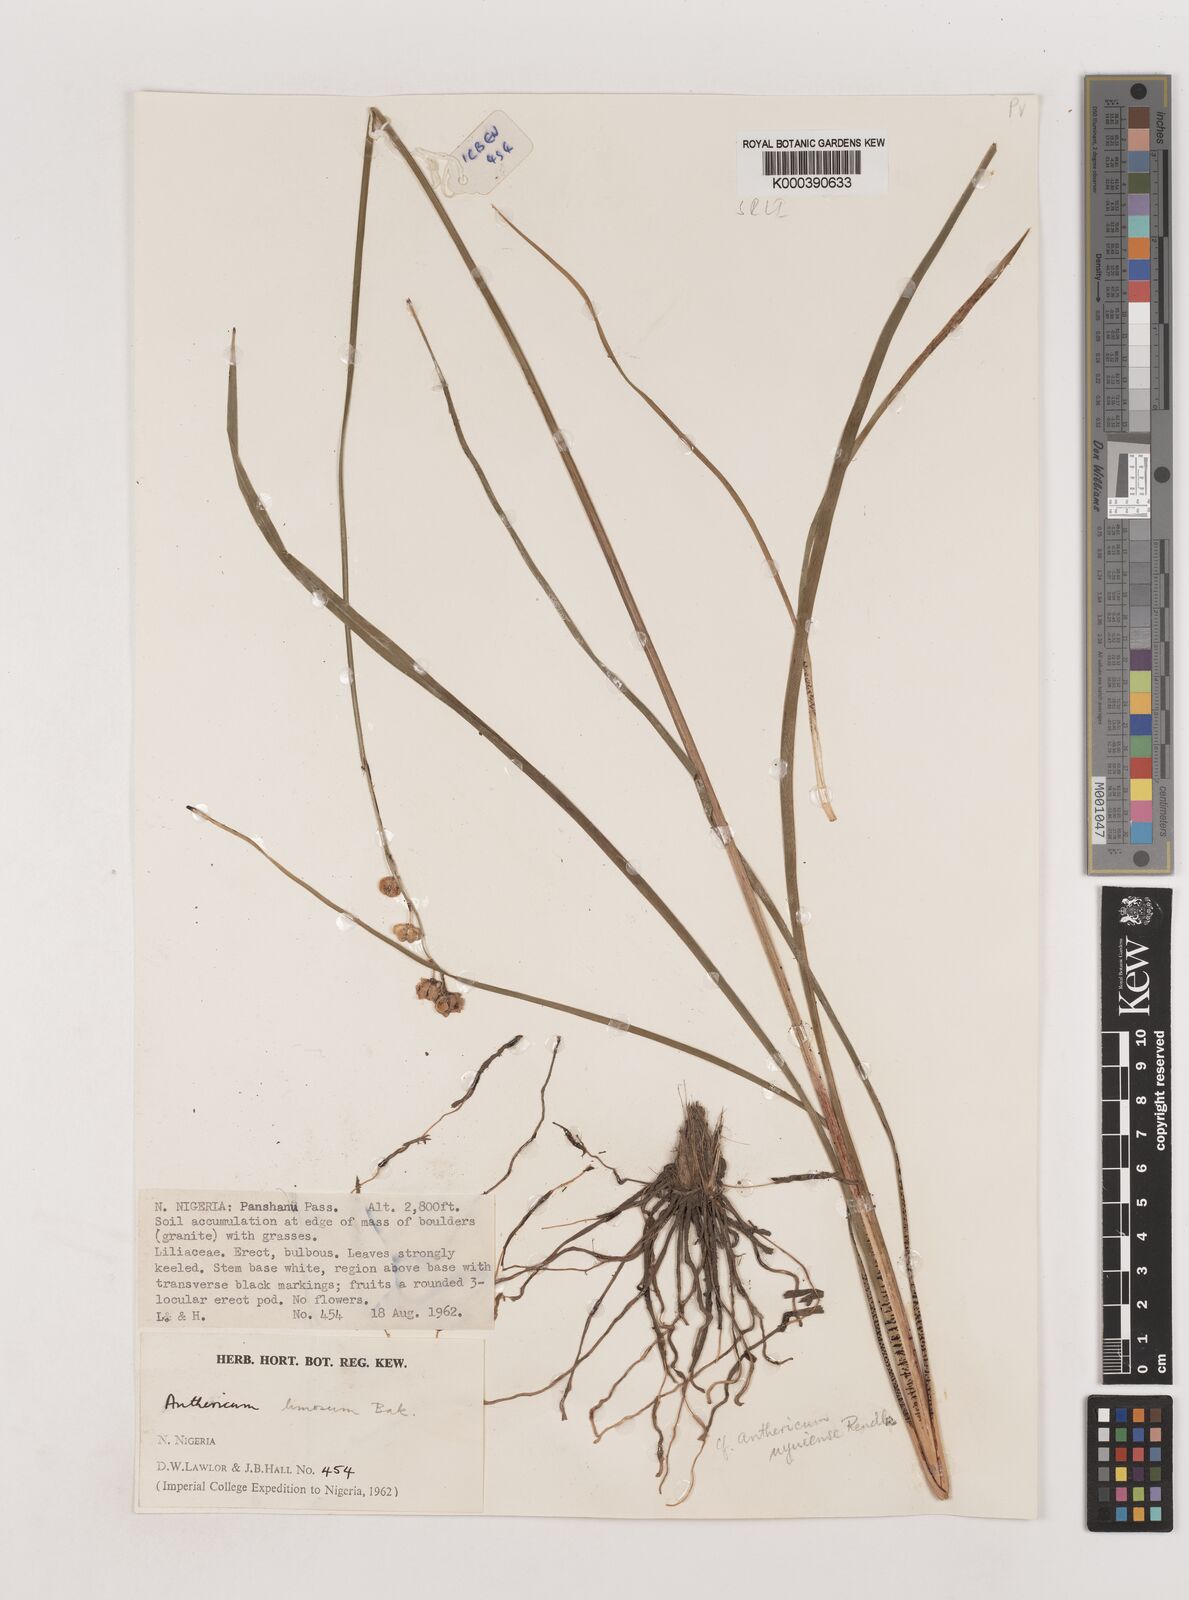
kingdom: Plantae
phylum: Tracheophyta
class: Liliopsida
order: Asparagales
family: Asparagaceae
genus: Chlorophytum
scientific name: Chlorophytum limosum
